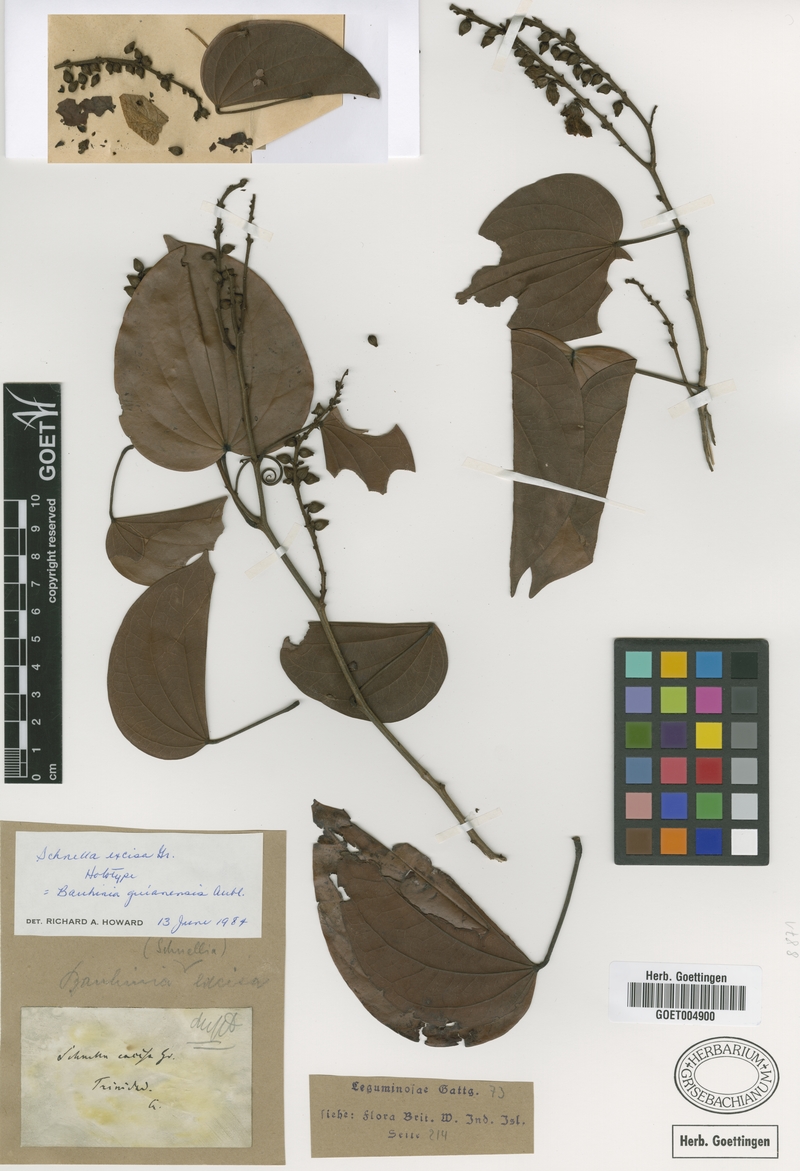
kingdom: Plantae
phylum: Tracheophyta
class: Magnoliopsida
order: Fabales
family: Fabaceae
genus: Schnella
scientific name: Schnella excisa
